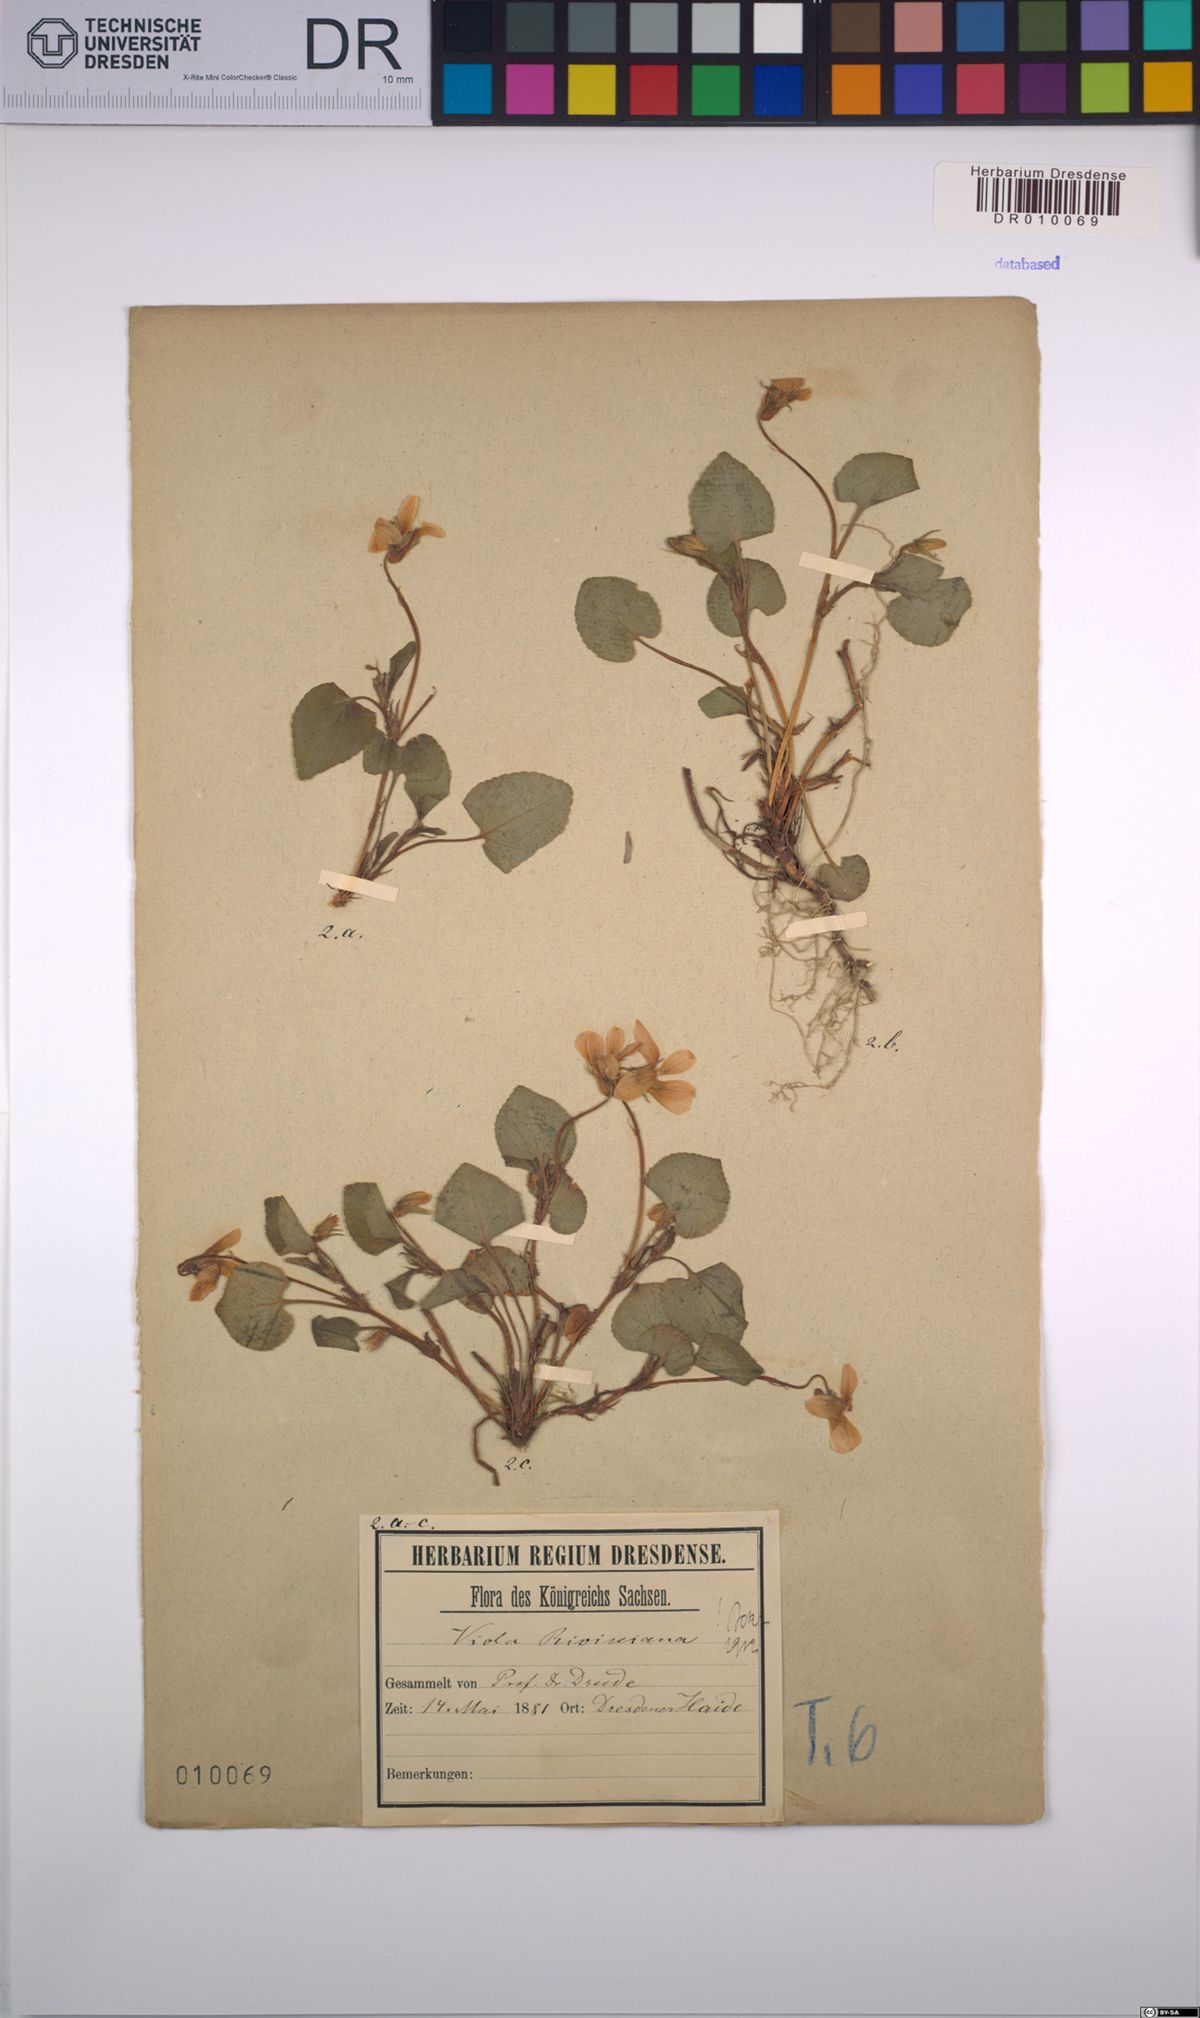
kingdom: Plantae
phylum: Tracheophyta
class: Magnoliopsida
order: Malpighiales
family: Violaceae
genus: Viola
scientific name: Viola riviniana
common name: Common dog-violet
